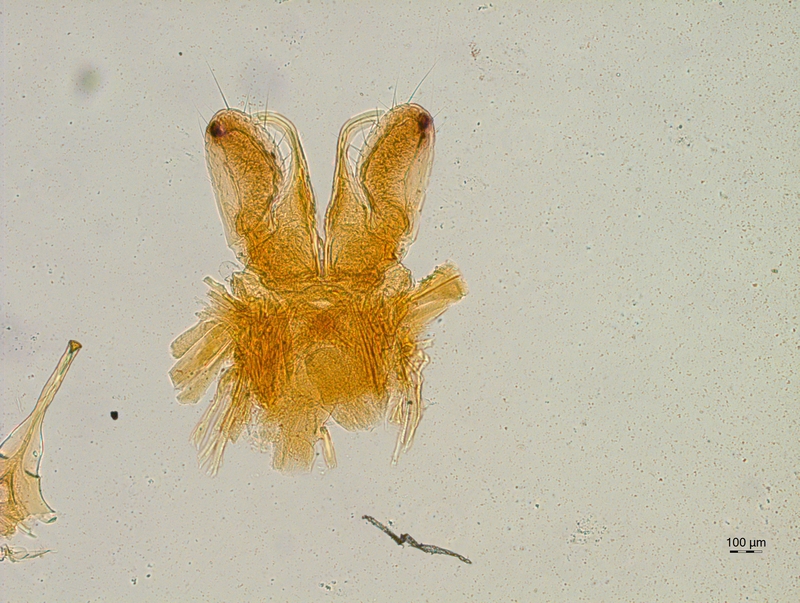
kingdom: Animalia
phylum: Arthropoda
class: Diplopoda
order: Chordeumatida
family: Chordeumatidae
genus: Mycogona
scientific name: Mycogona germanica
